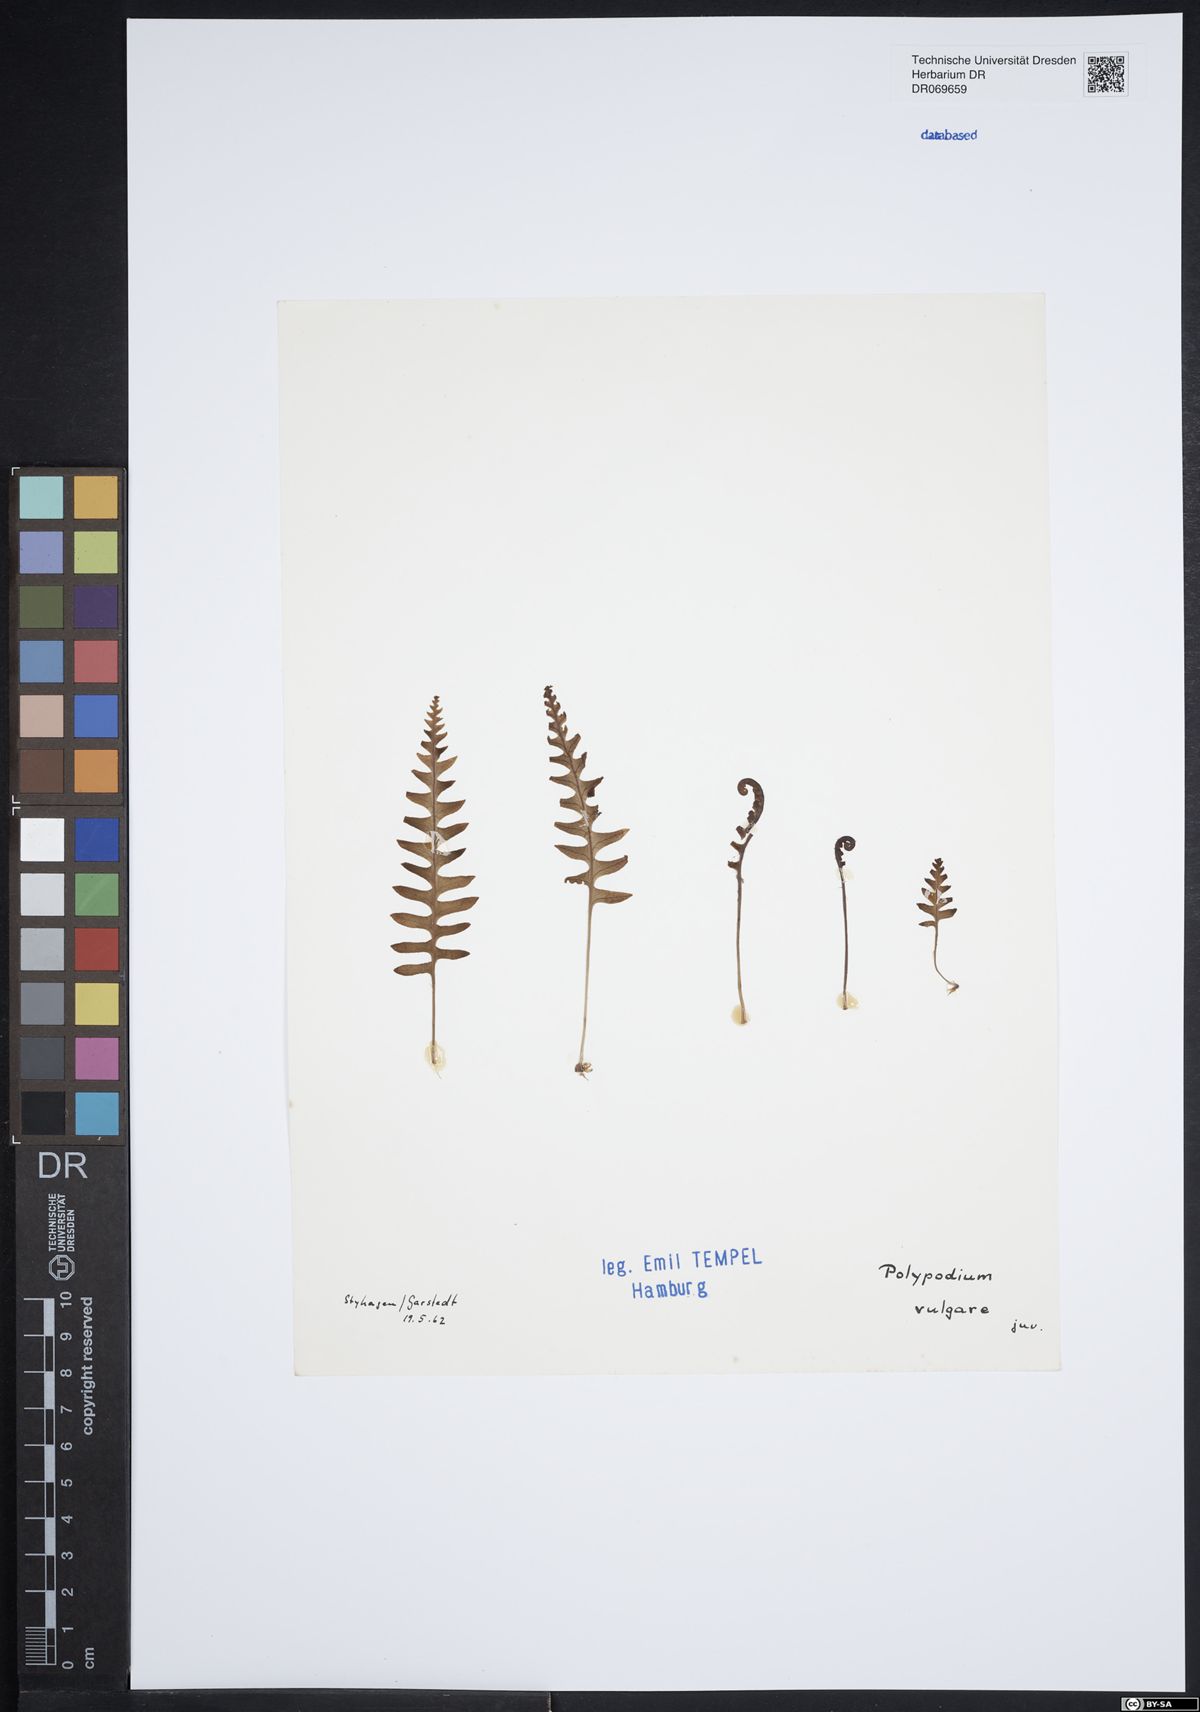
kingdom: Plantae
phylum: Tracheophyta
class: Polypodiopsida
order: Polypodiales
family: Polypodiaceae
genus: Polypodium
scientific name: Polypodium vulgare
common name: Common polypody
